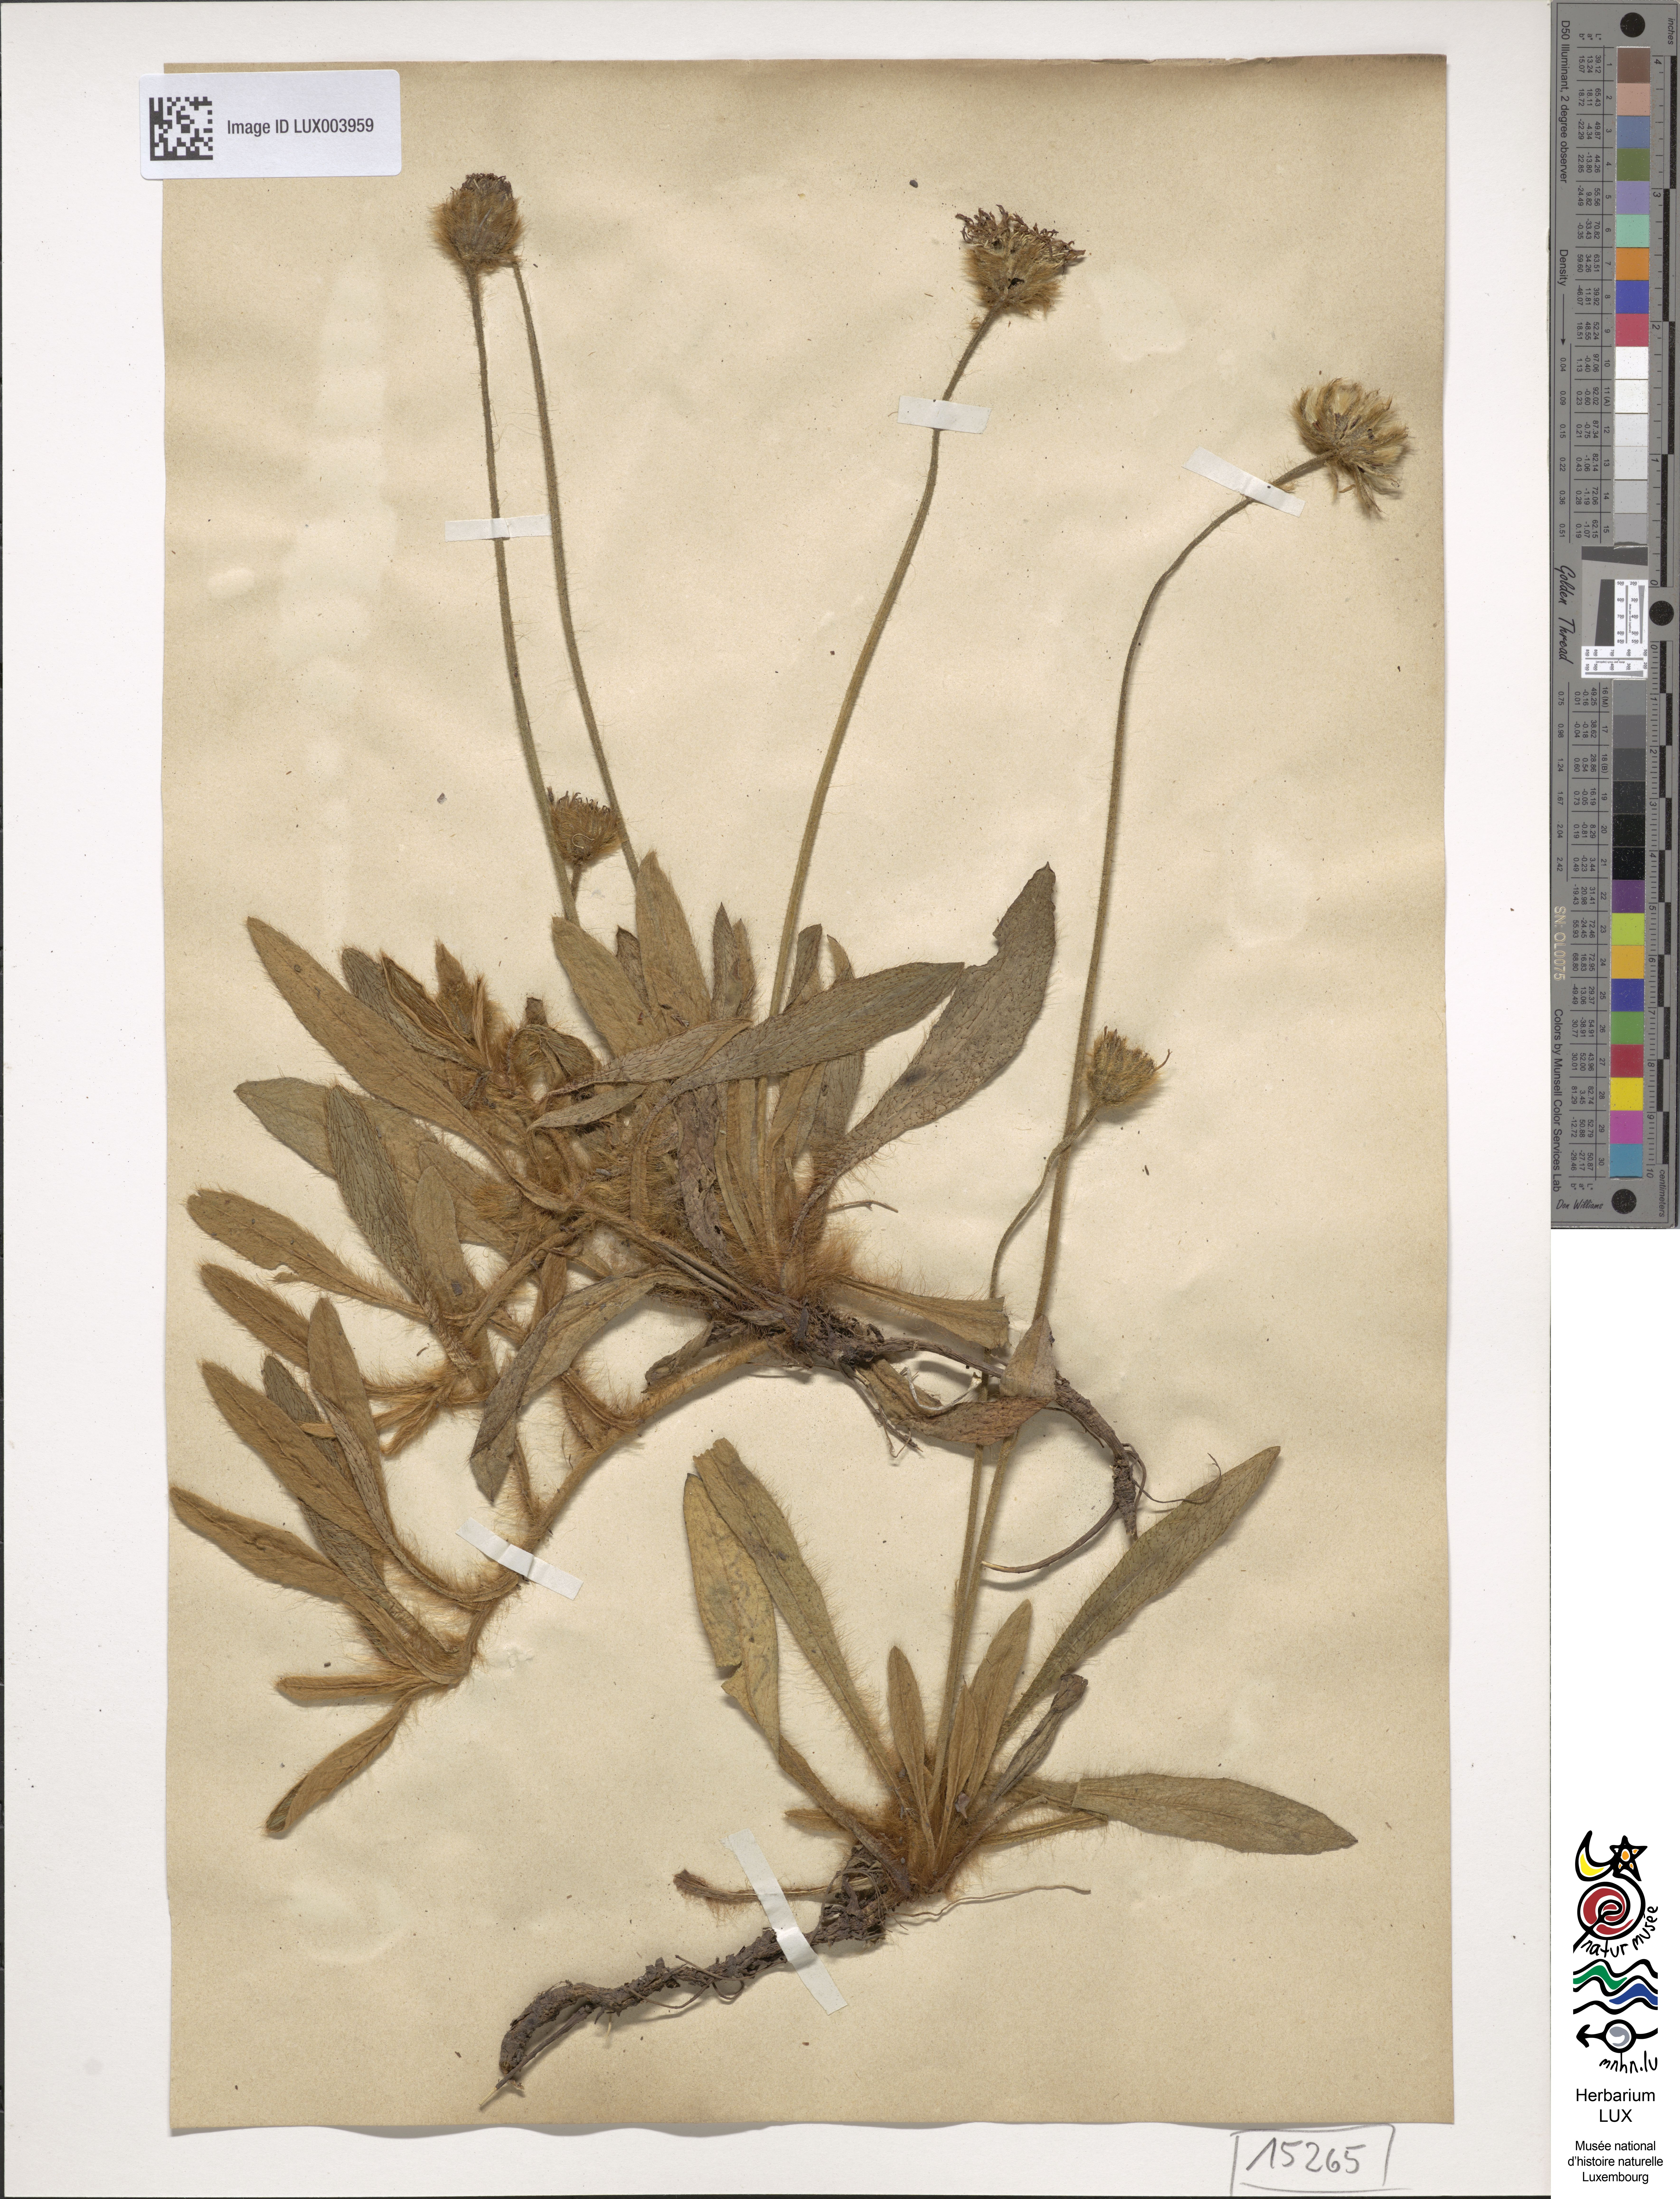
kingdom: Plantae
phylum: Tracheophyta
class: Magnoliopsida
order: Asterales
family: Asteraceae
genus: Pilosella
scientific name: Pilosella peleteriana
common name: Shaggy mouse-ear-hawkweed
